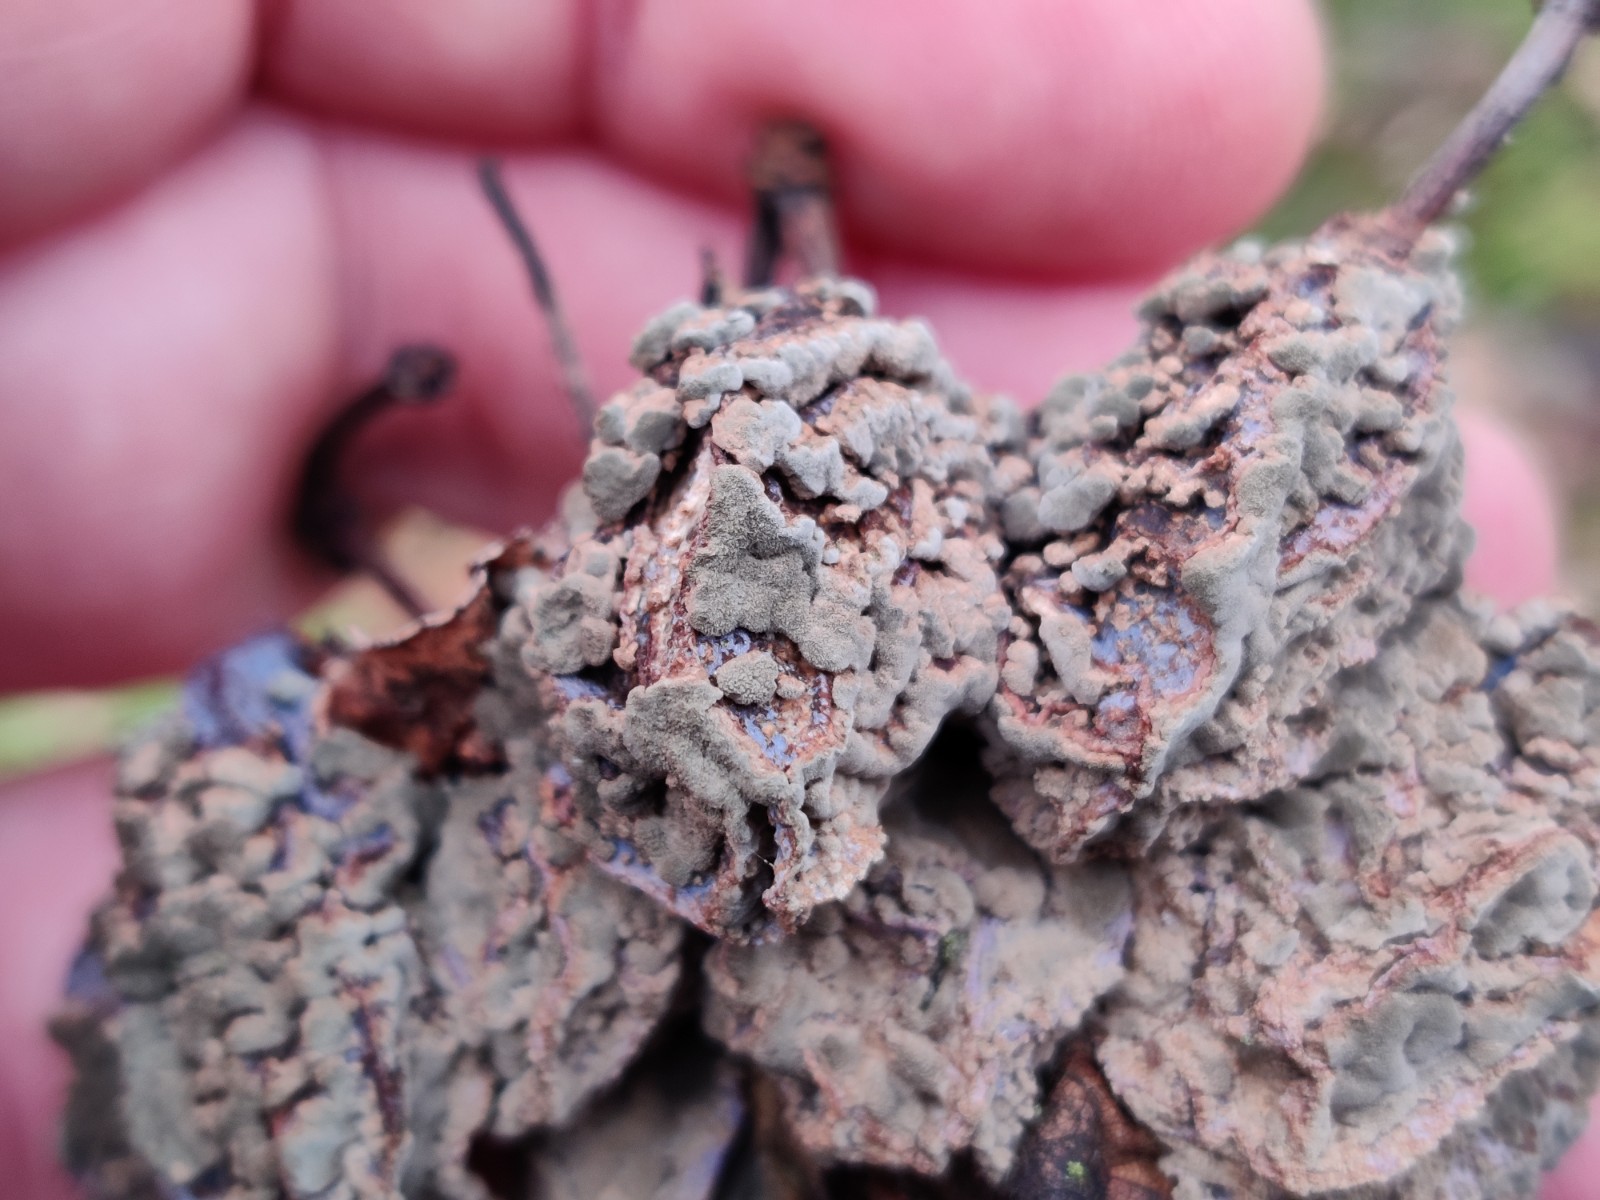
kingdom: Fungi
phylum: Ascomycota
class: Leotiomycetes
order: Helotiales
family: Sclerotiniaceae
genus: Monilinia
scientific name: Monilinia laxa
